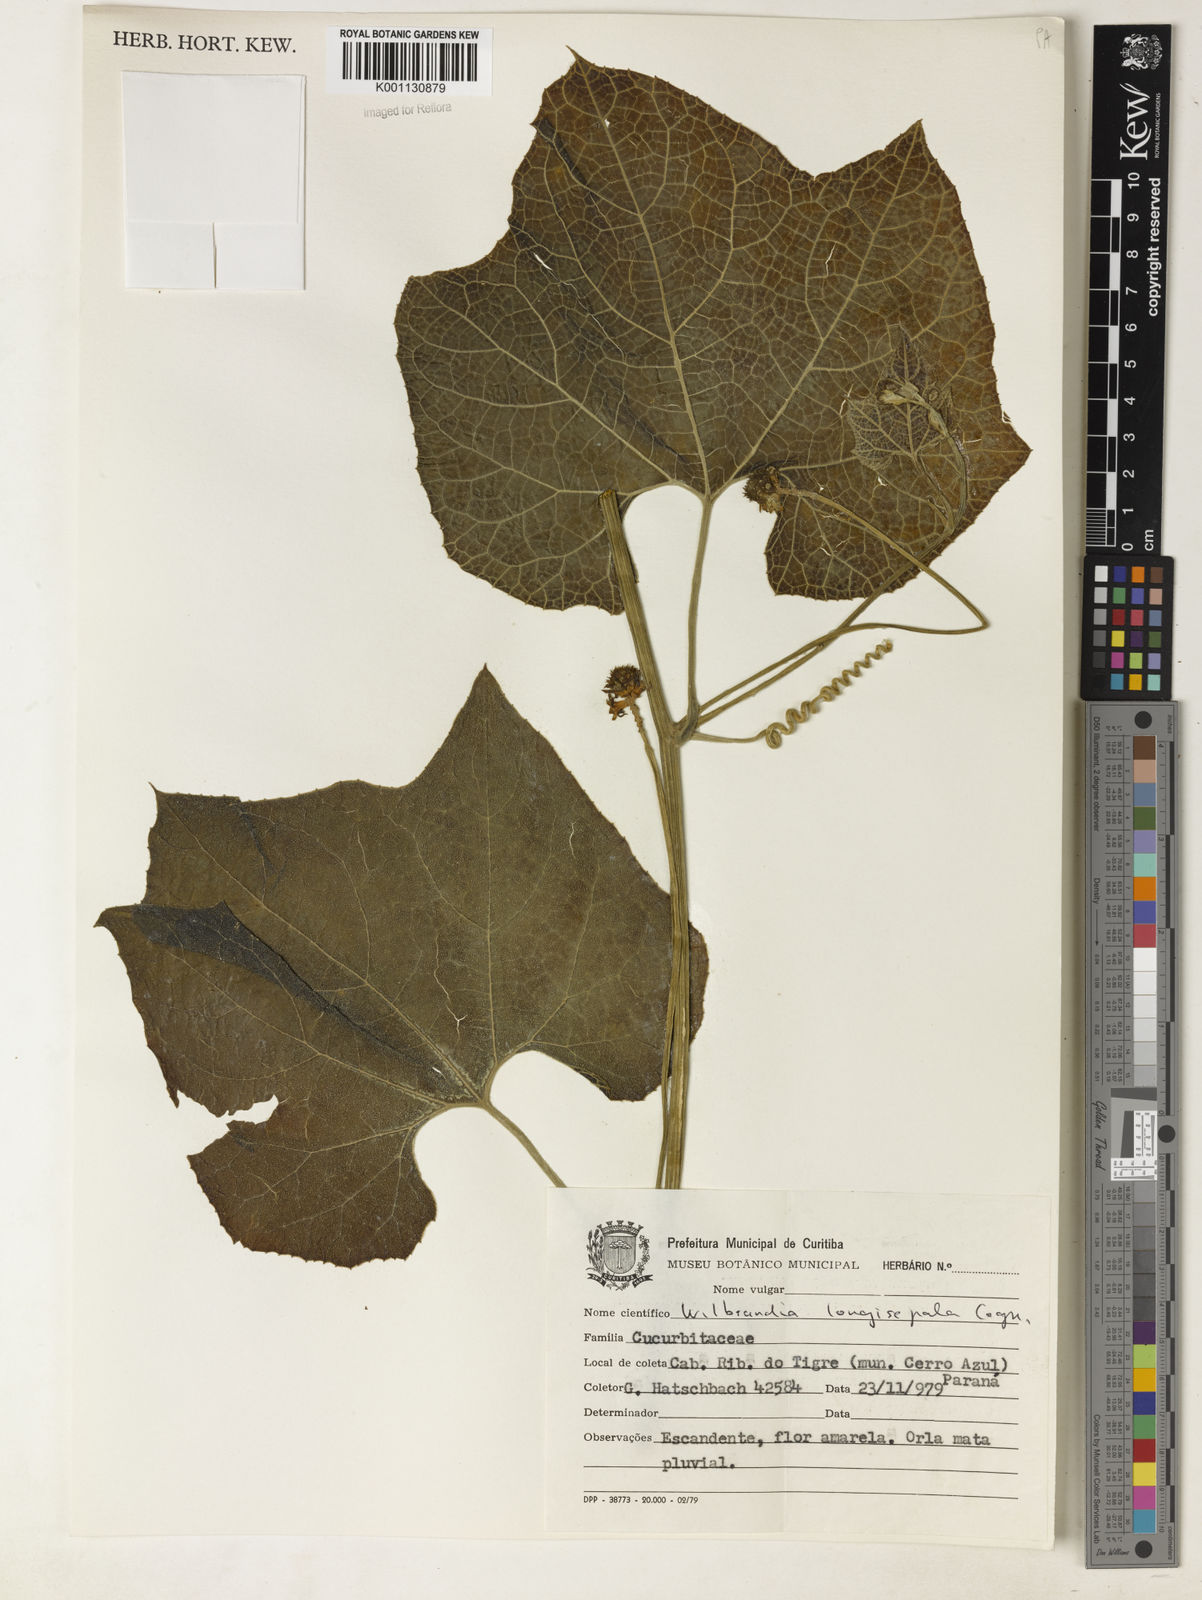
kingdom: Plantae
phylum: Tracheophyta
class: Magnoliopsida
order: Cucurbitales
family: Cucurbitaceae
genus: Wilbrandia
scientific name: Wilbrandia longisepala
